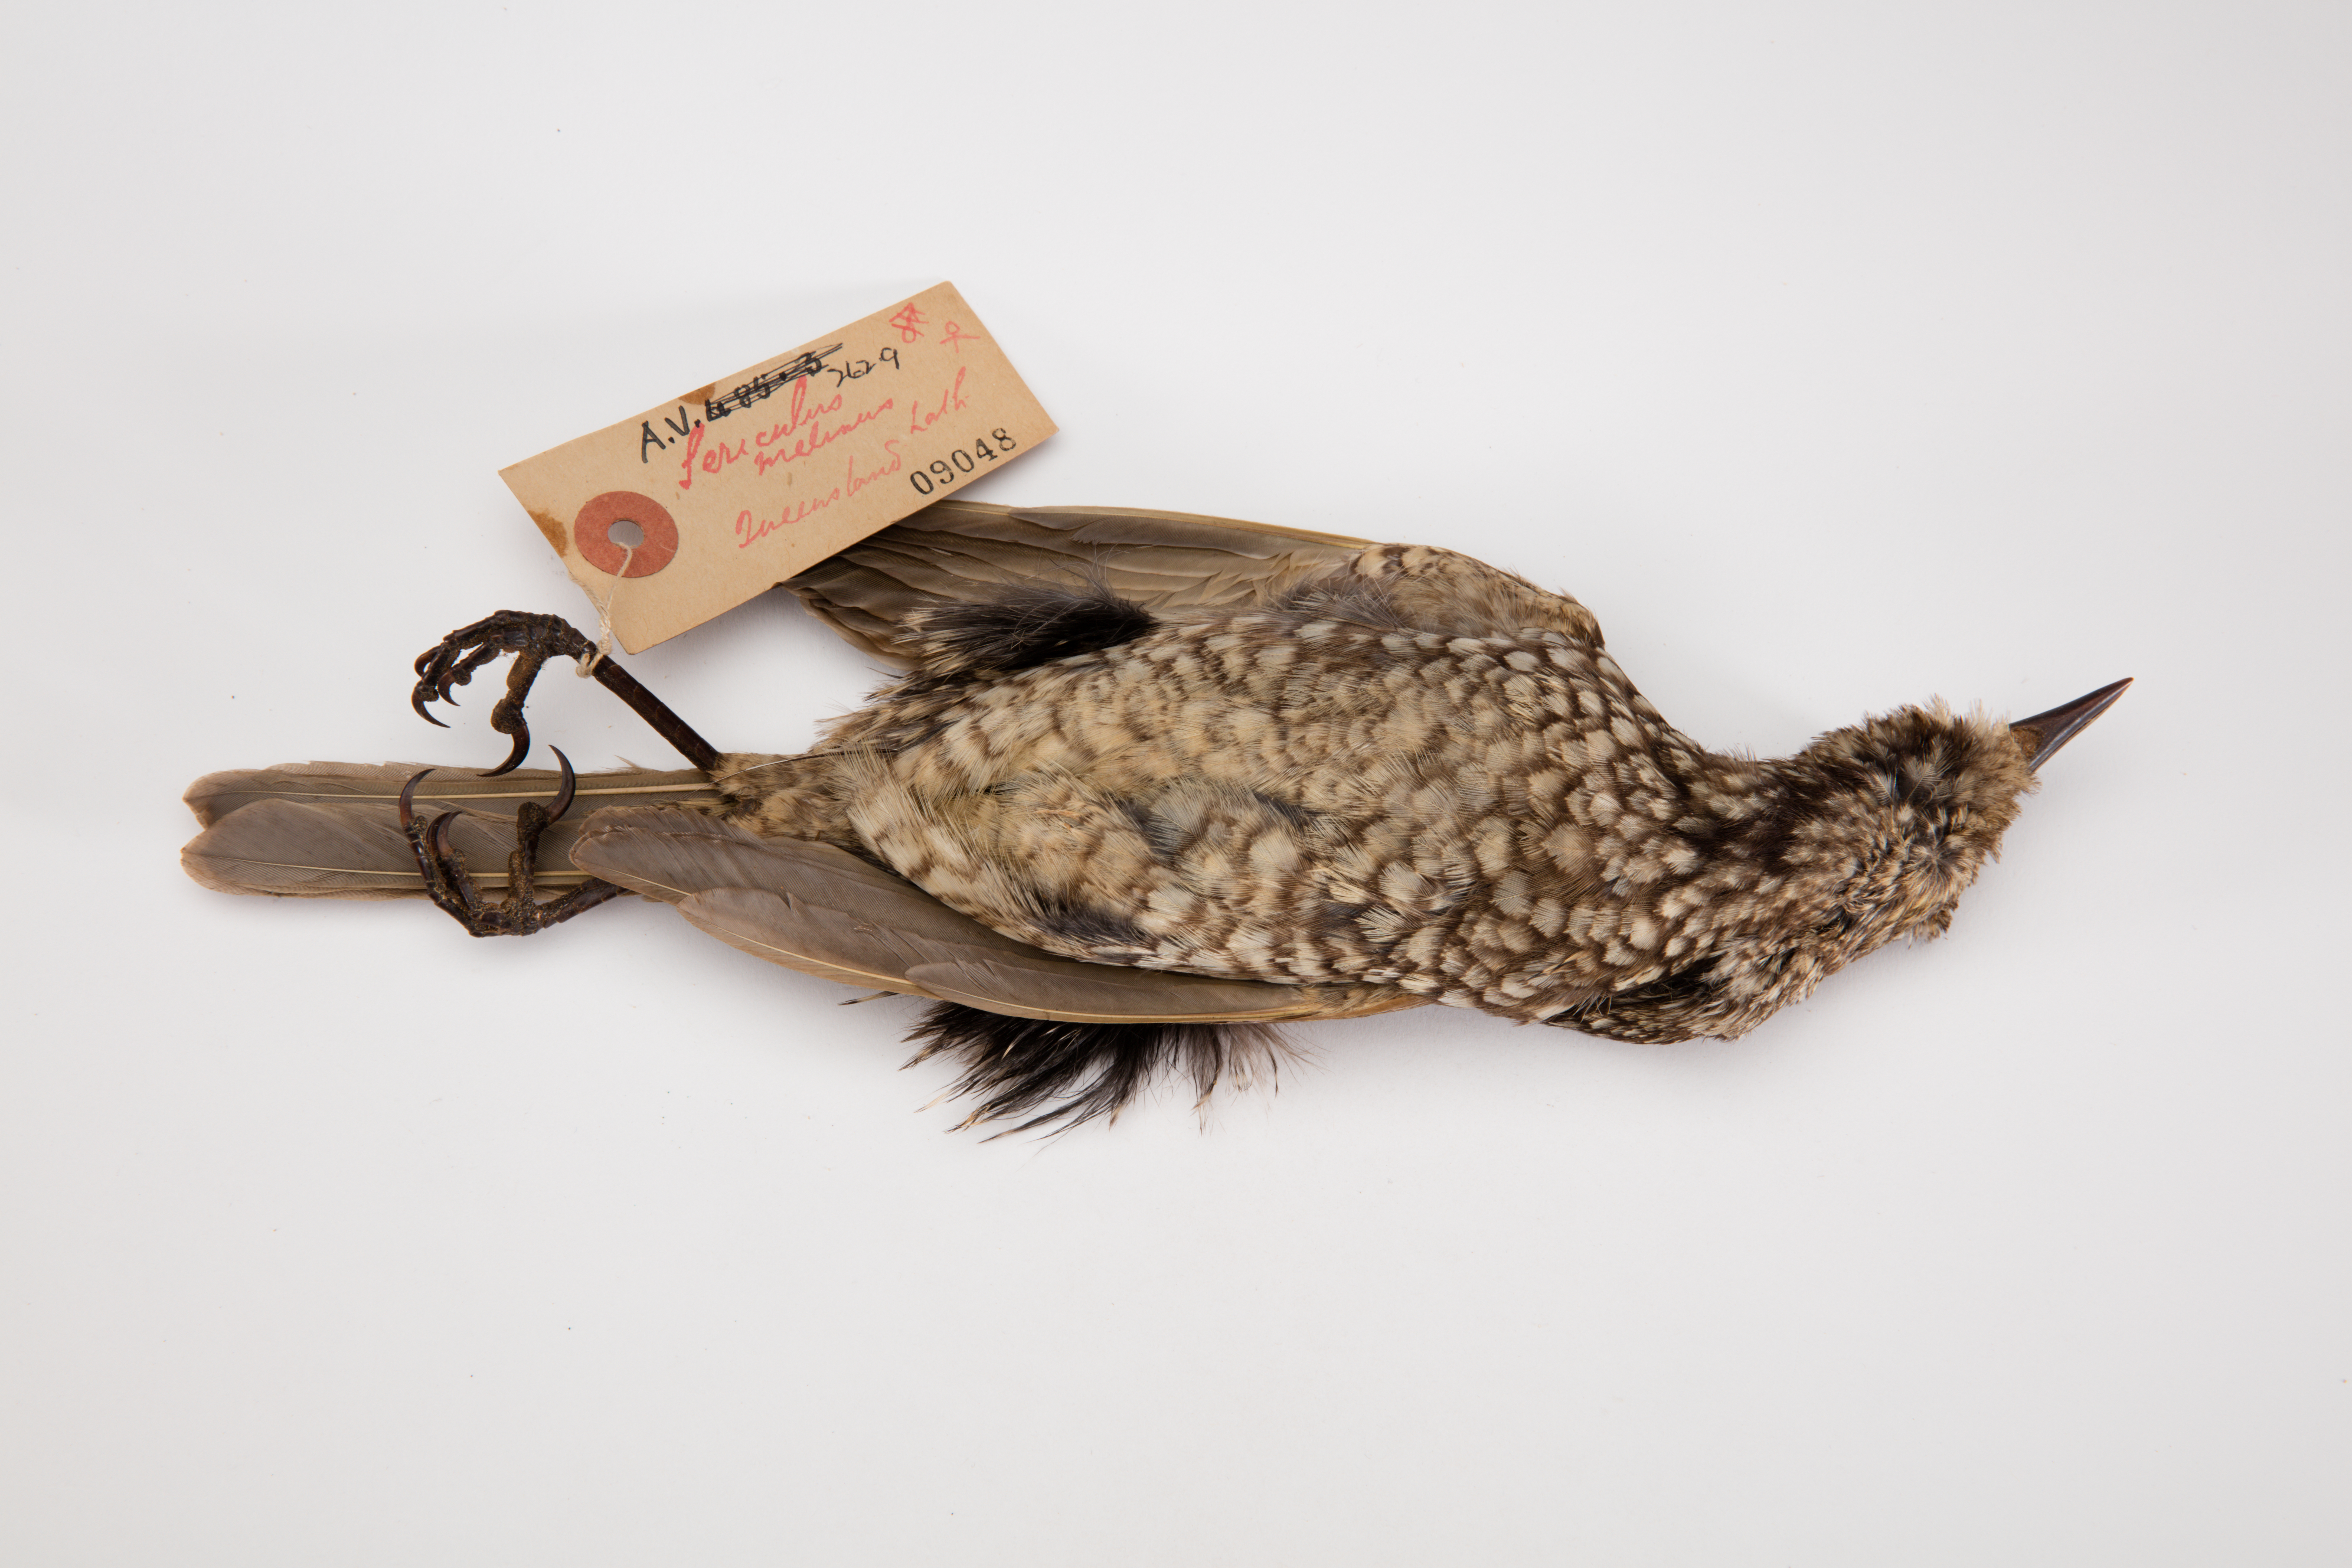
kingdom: Animalia
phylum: Chordata
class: Aves
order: Passeriformes
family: Ptilonorhynchidae
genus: Sericulus
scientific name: Sericulus chrysocephalus
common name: Regent bowerbird
